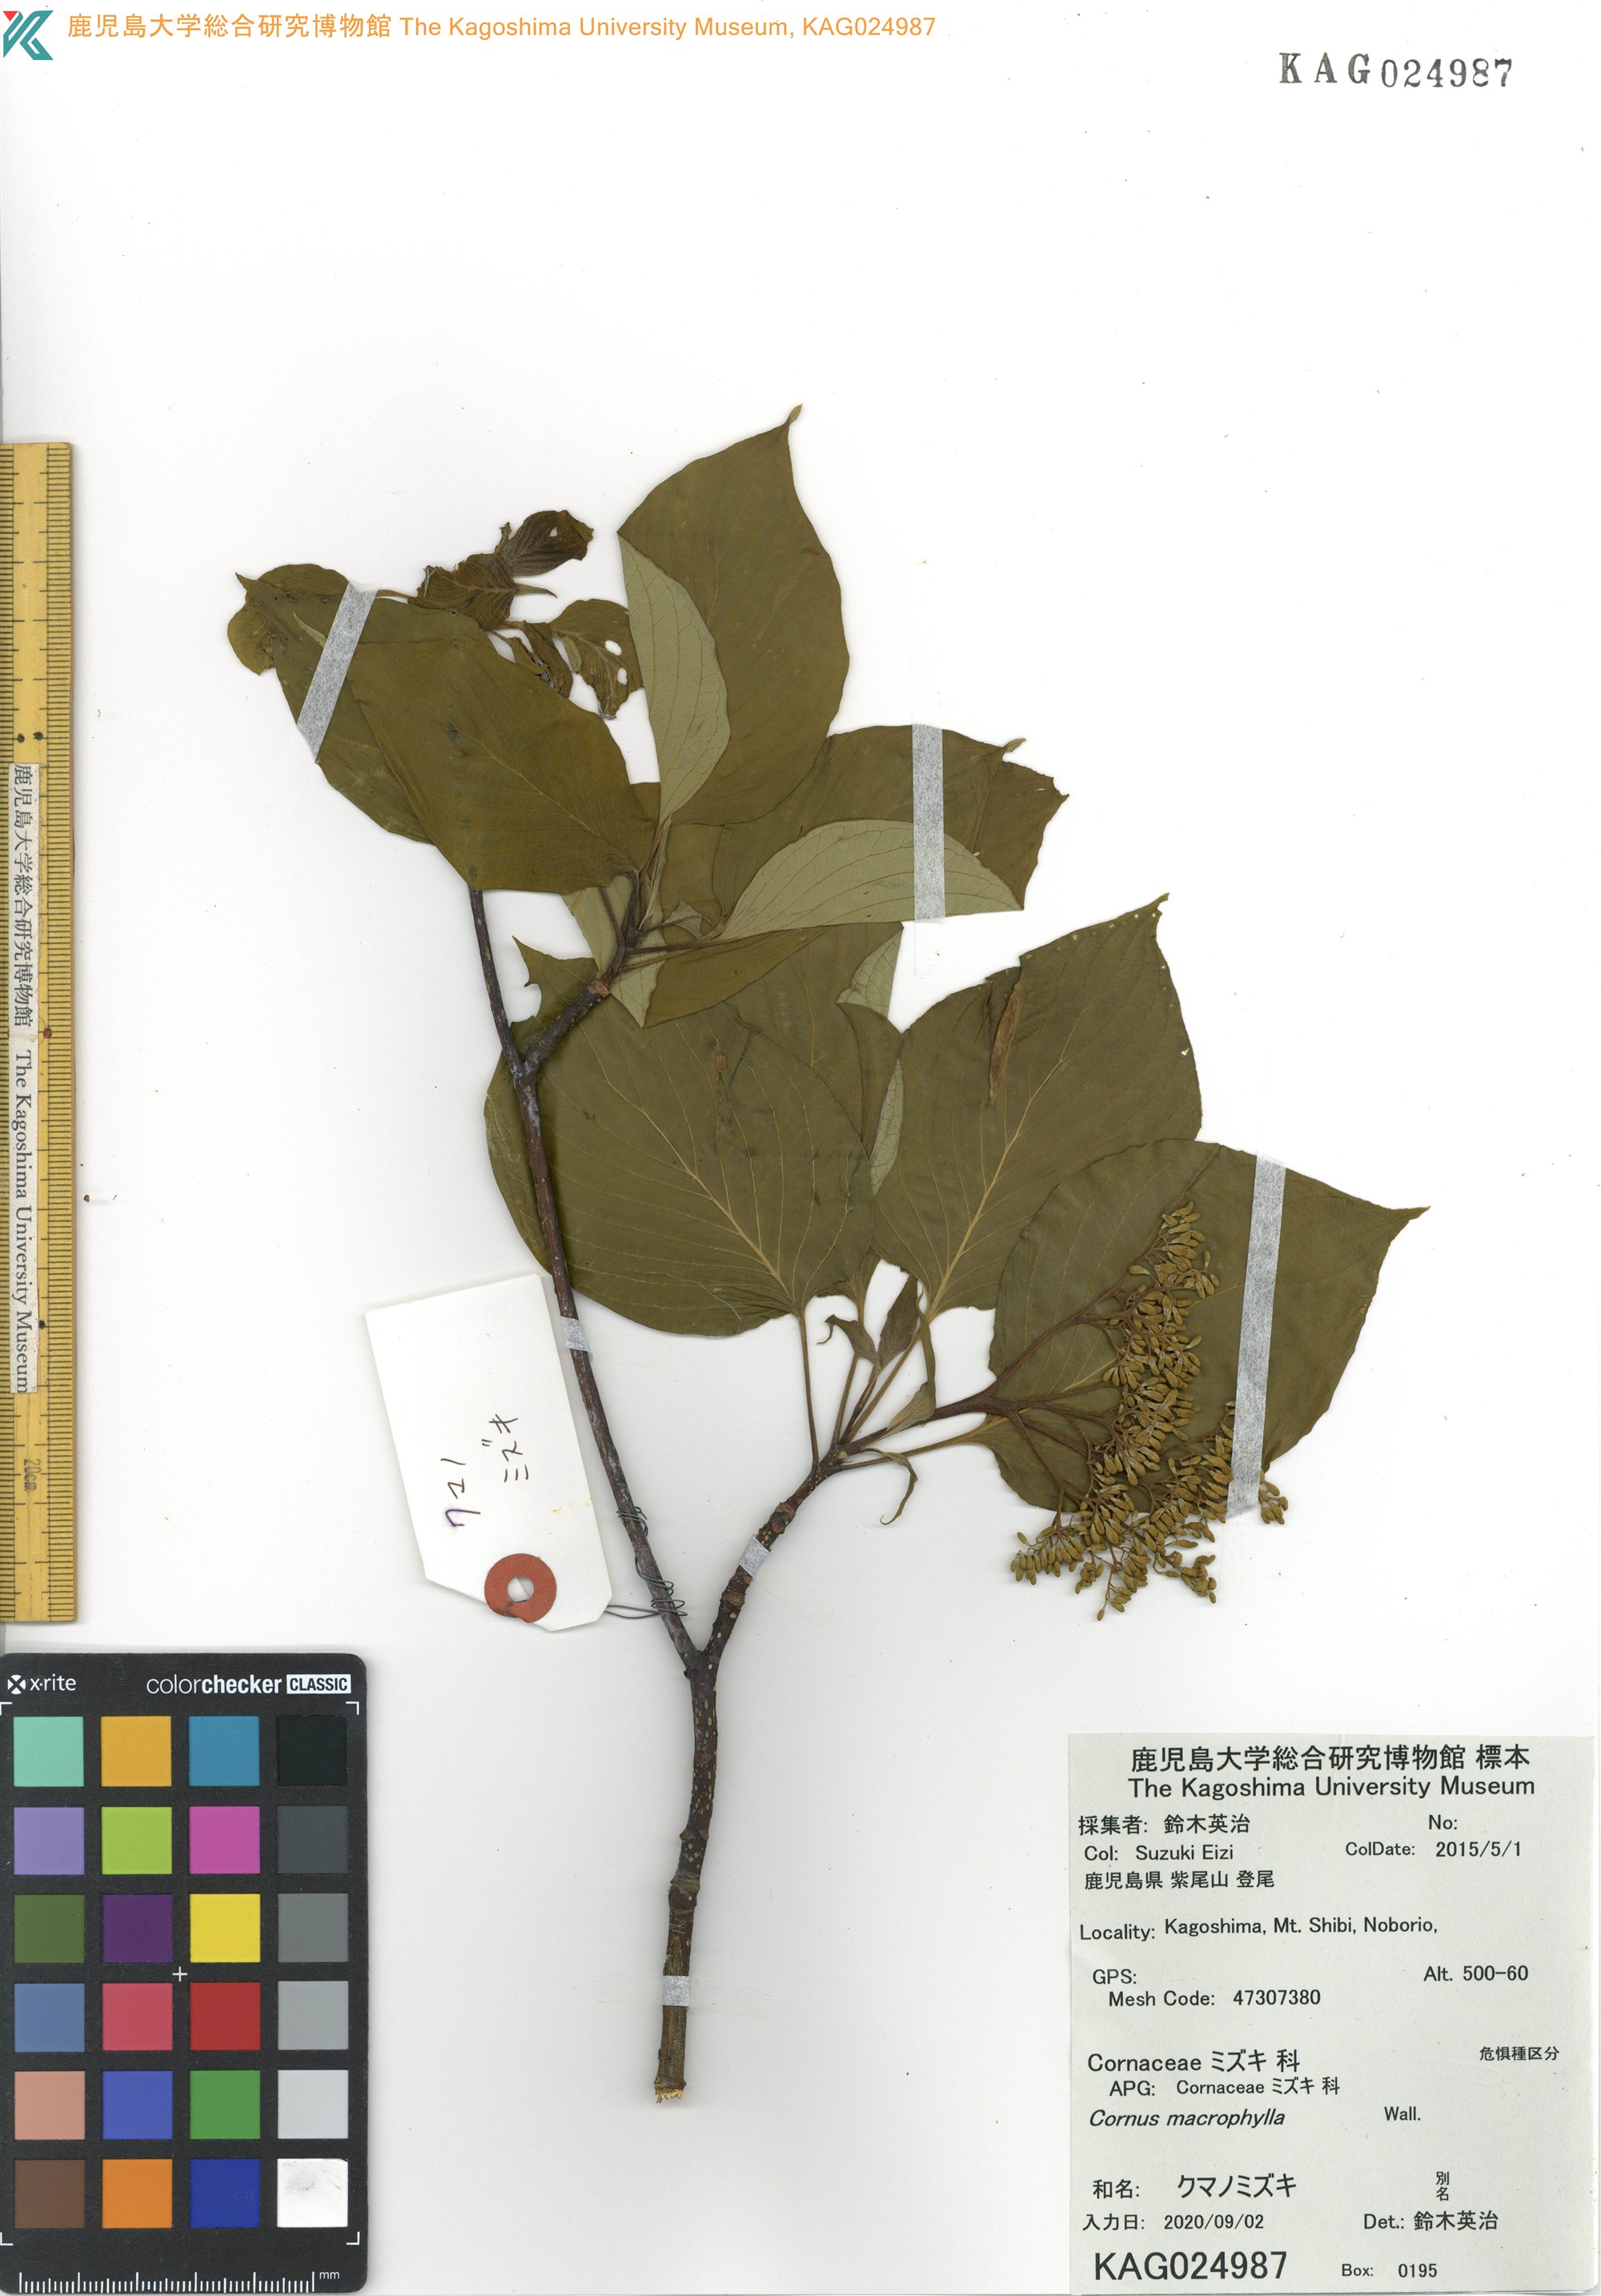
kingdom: Plantae
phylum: Tracheophyta
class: Magnoliopsida
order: Cornales
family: Cornaceae
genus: Cornus
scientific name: Cornus macrophylla
